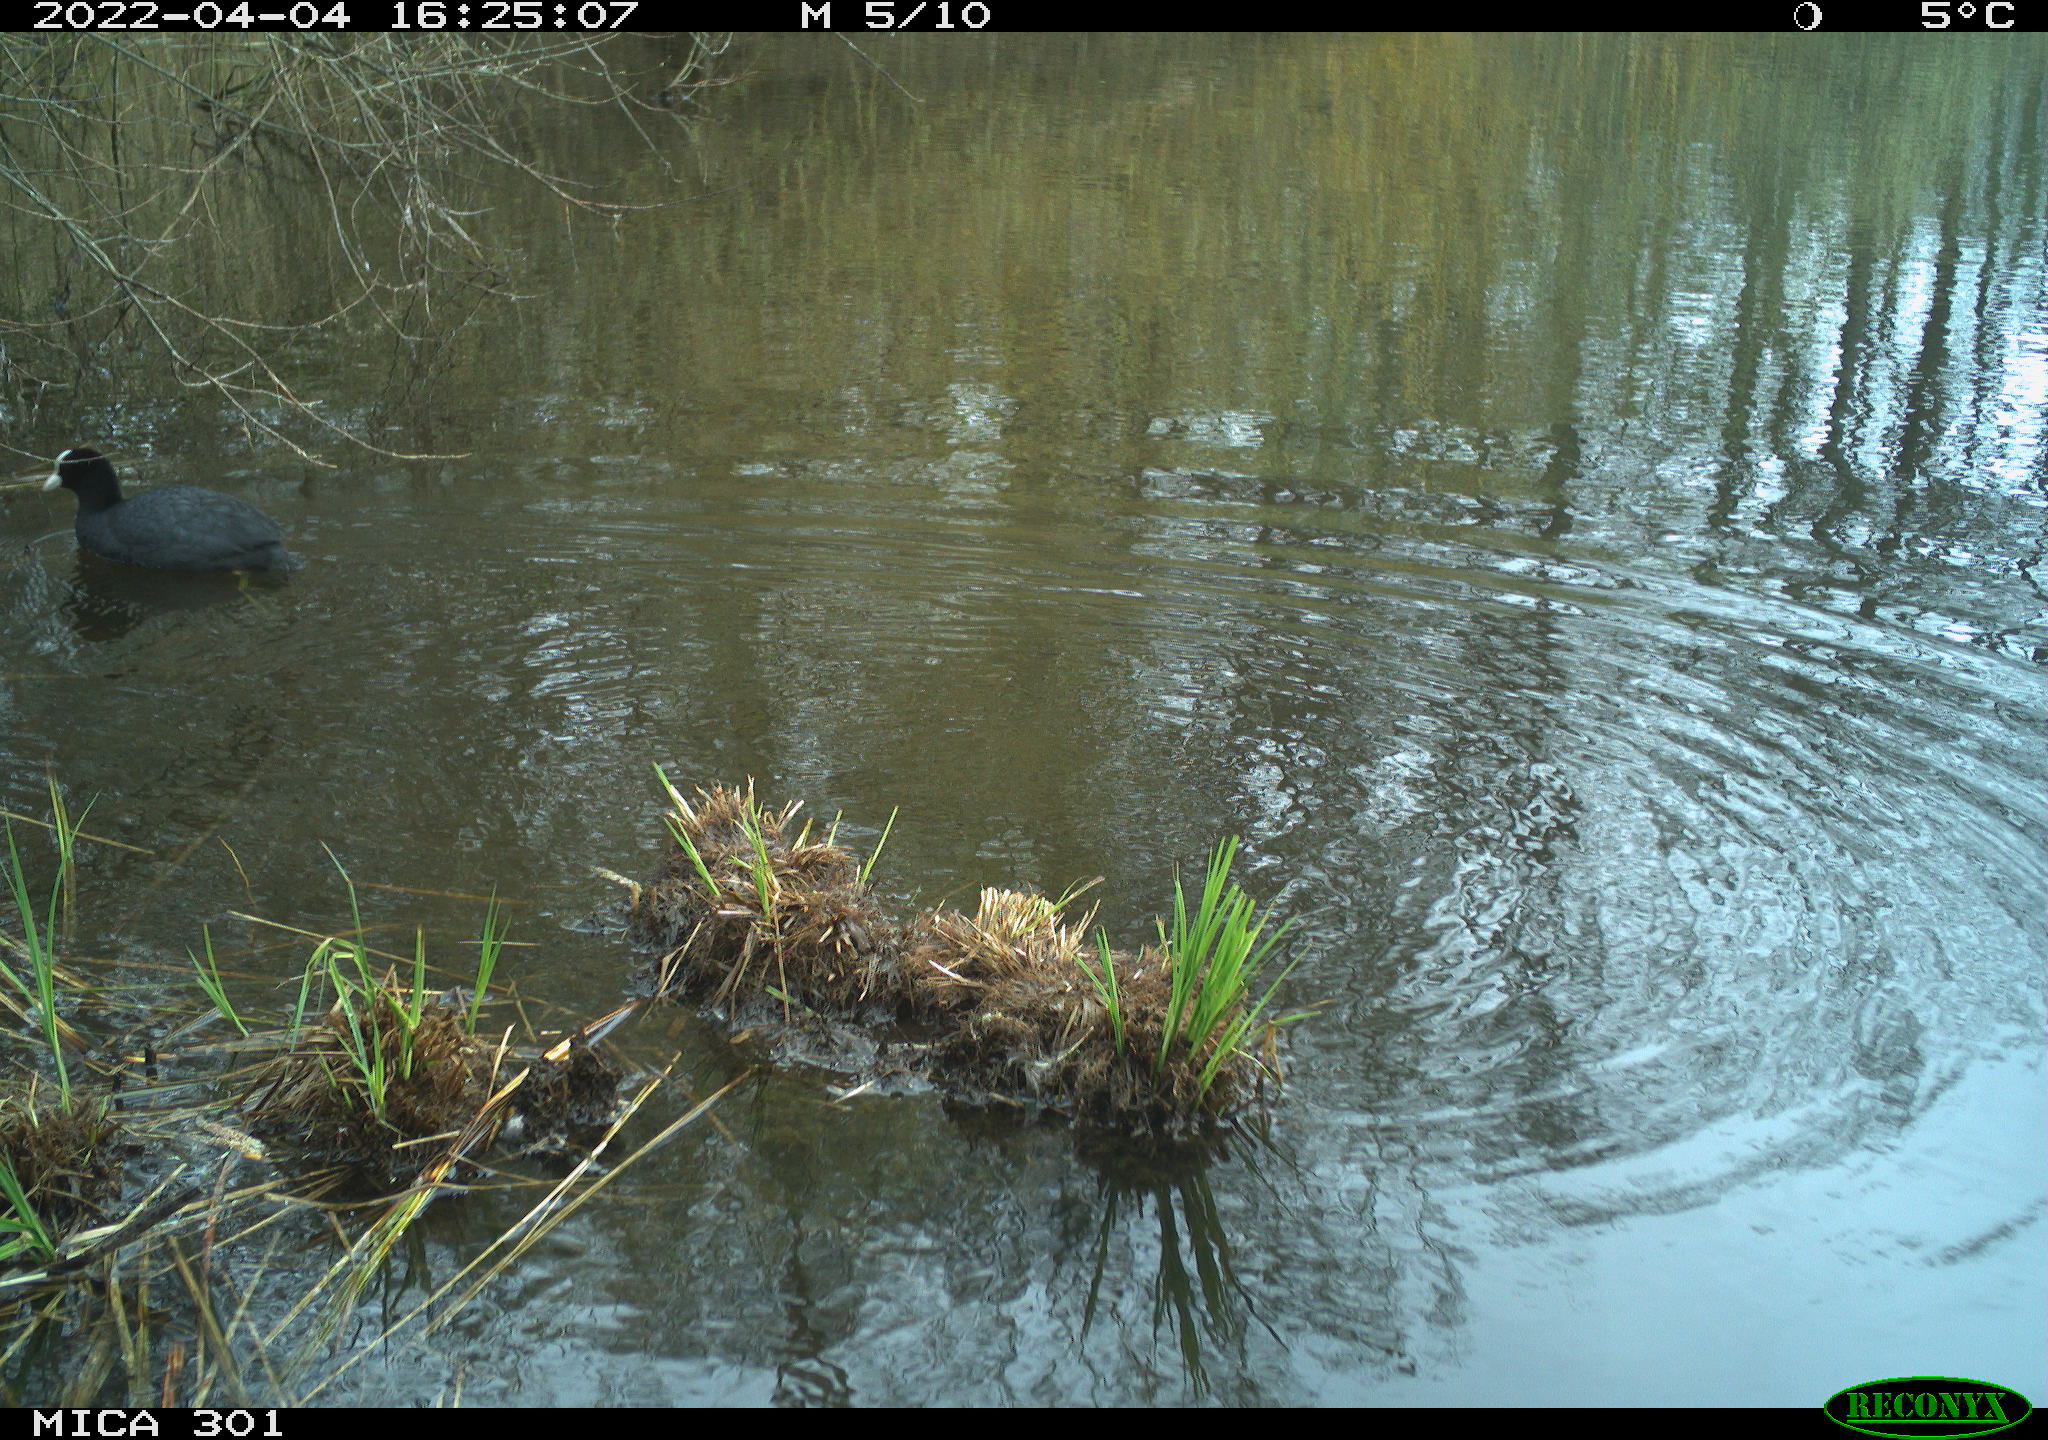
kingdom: Animalia
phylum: Chordata
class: Aves
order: Gruiformes
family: Rallidae
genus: Fulica
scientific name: Fulica atra
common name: Eurasian coot
